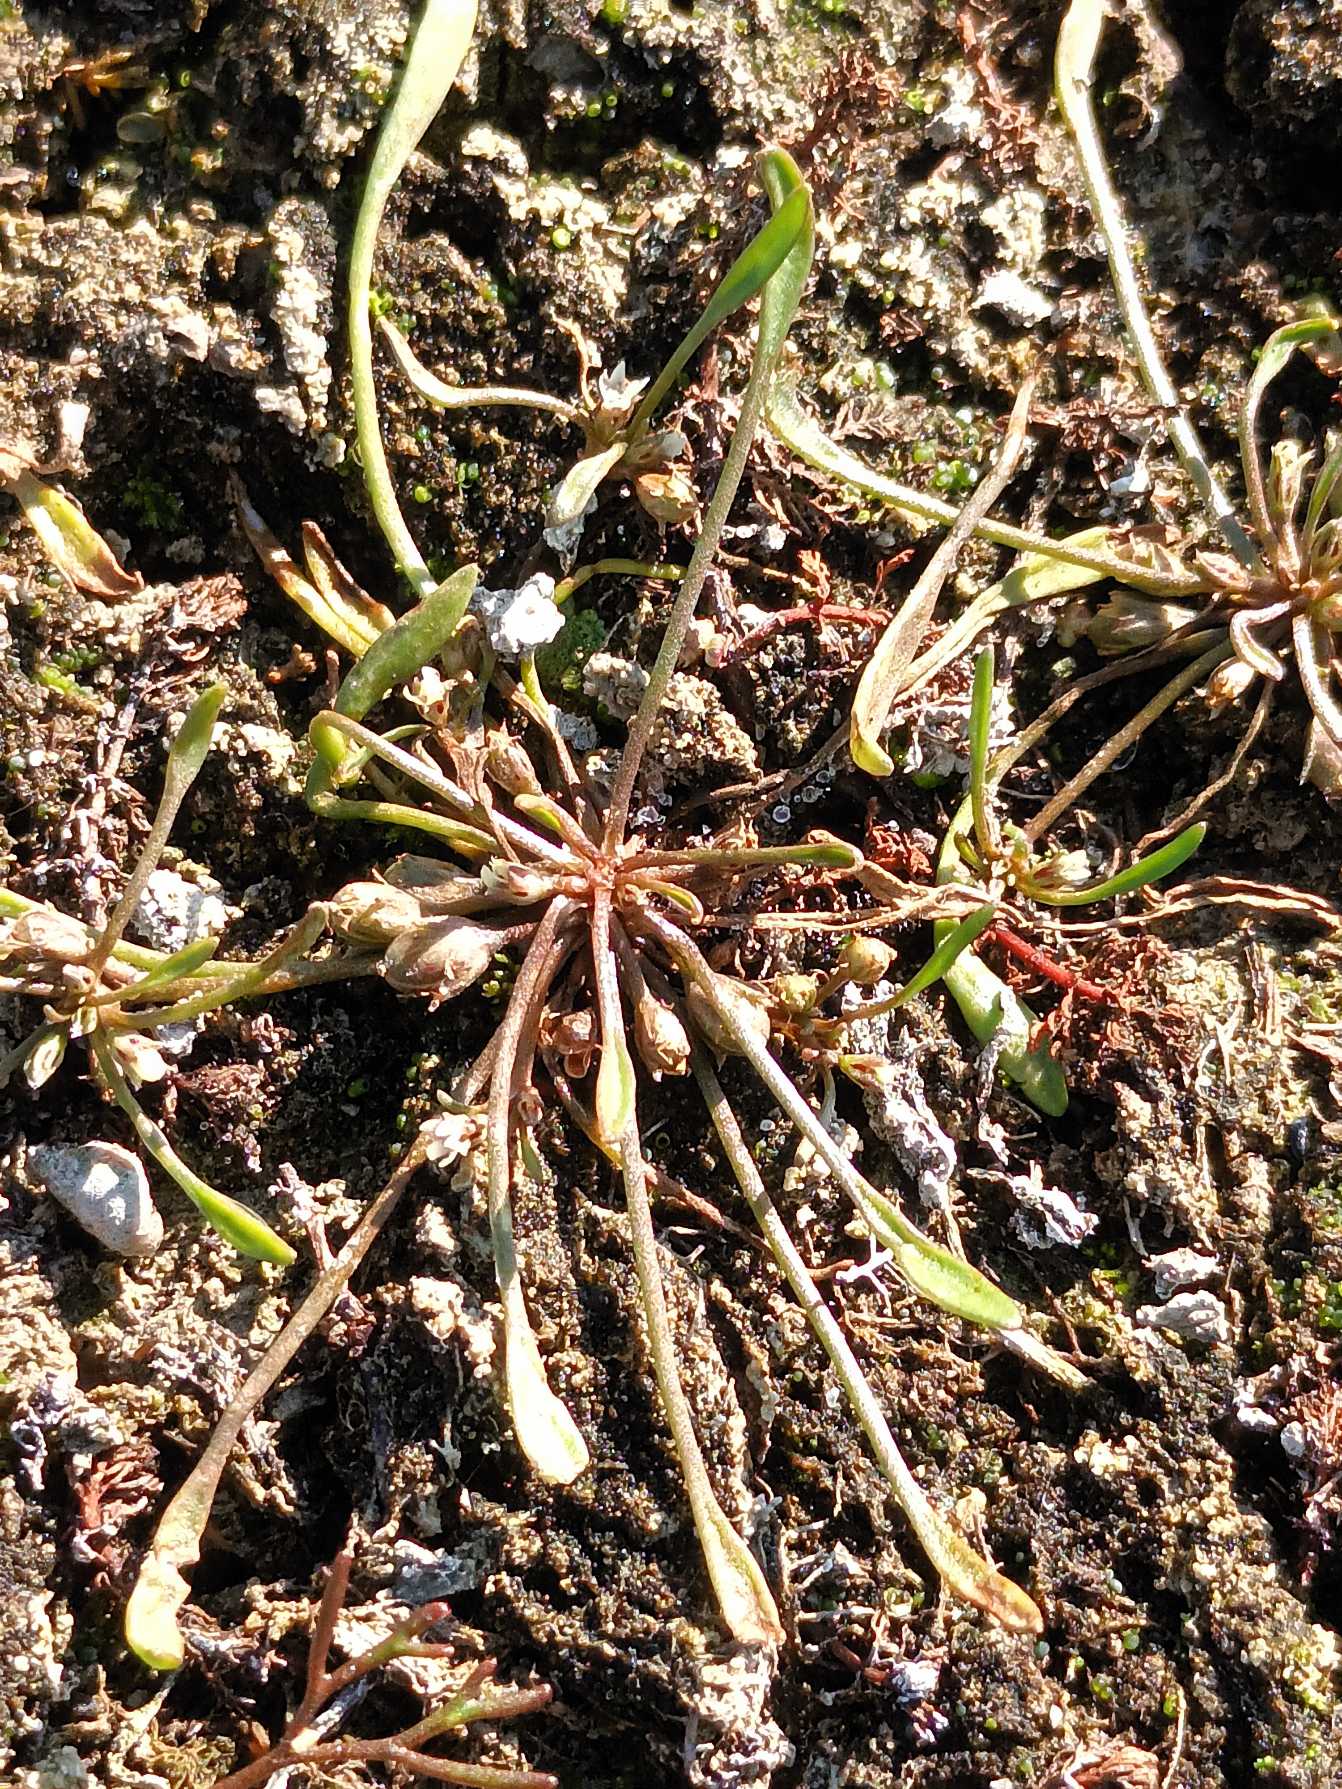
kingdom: Plantae
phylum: Tracheophyta
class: Magnoliopsida
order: Lamiales
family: Scrophulariaceae
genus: Limosella
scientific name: Limosella aquatica
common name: Dyndurt
